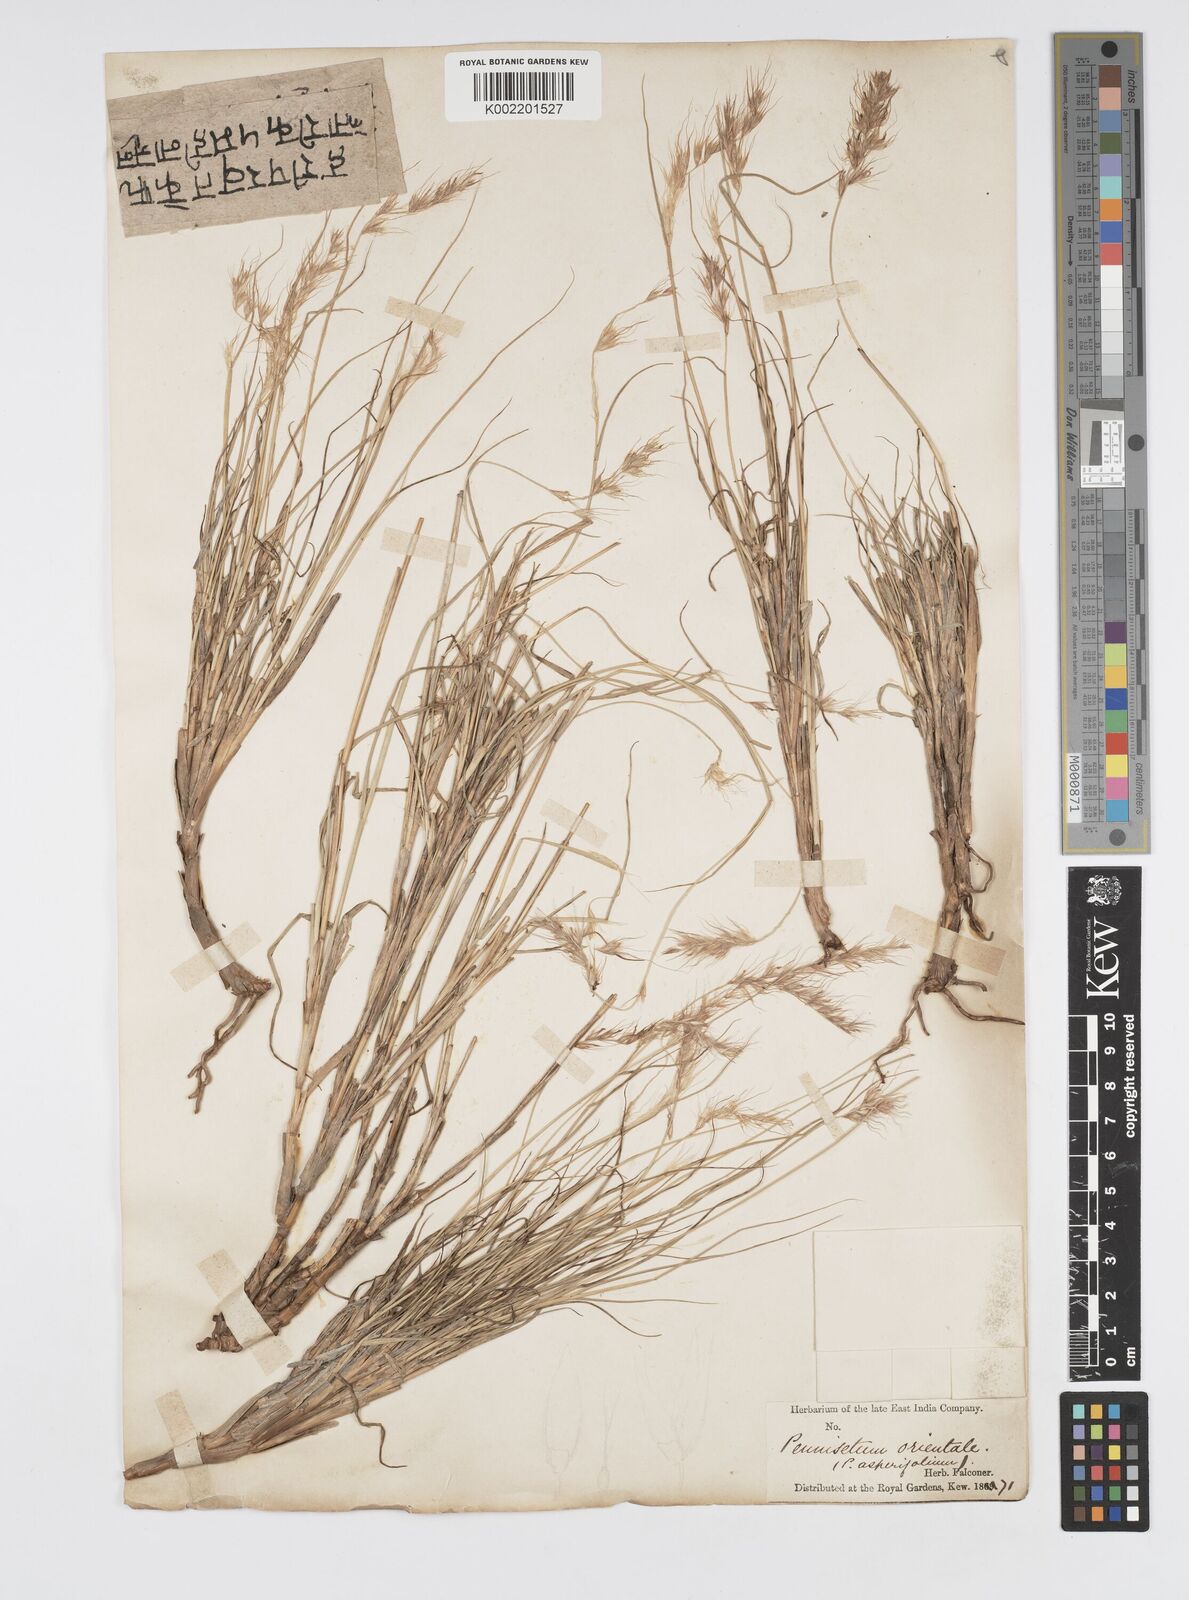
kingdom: Plantae
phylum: Tracheophyta
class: Liliopsida
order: Poales
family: Poaceae
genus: Cenchrus
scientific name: Cenchrus orientalis
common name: Oriental fountain grass
